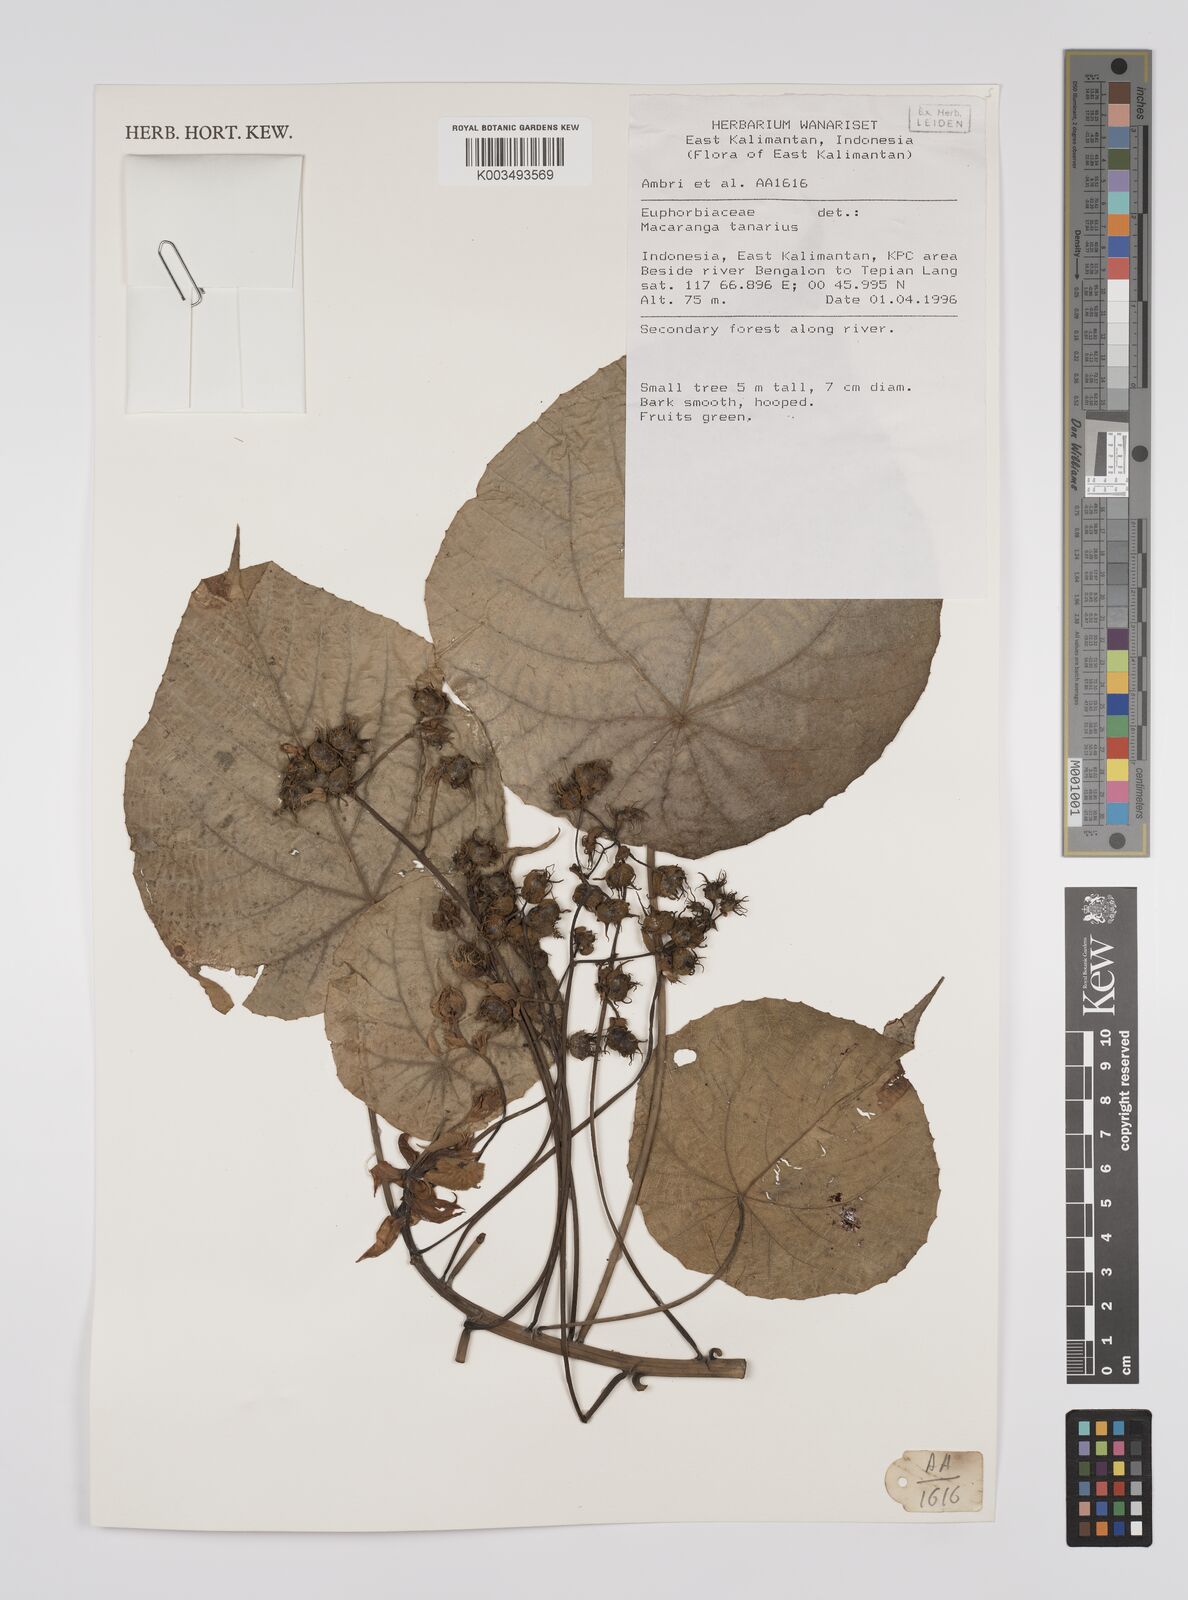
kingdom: Plantae
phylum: Tracheophyta
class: Magnoliopsida
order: Malpighiales
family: Euphorbiaceae
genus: Macaranga
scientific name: Macaranga tanarius
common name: Parasol leaf tree
